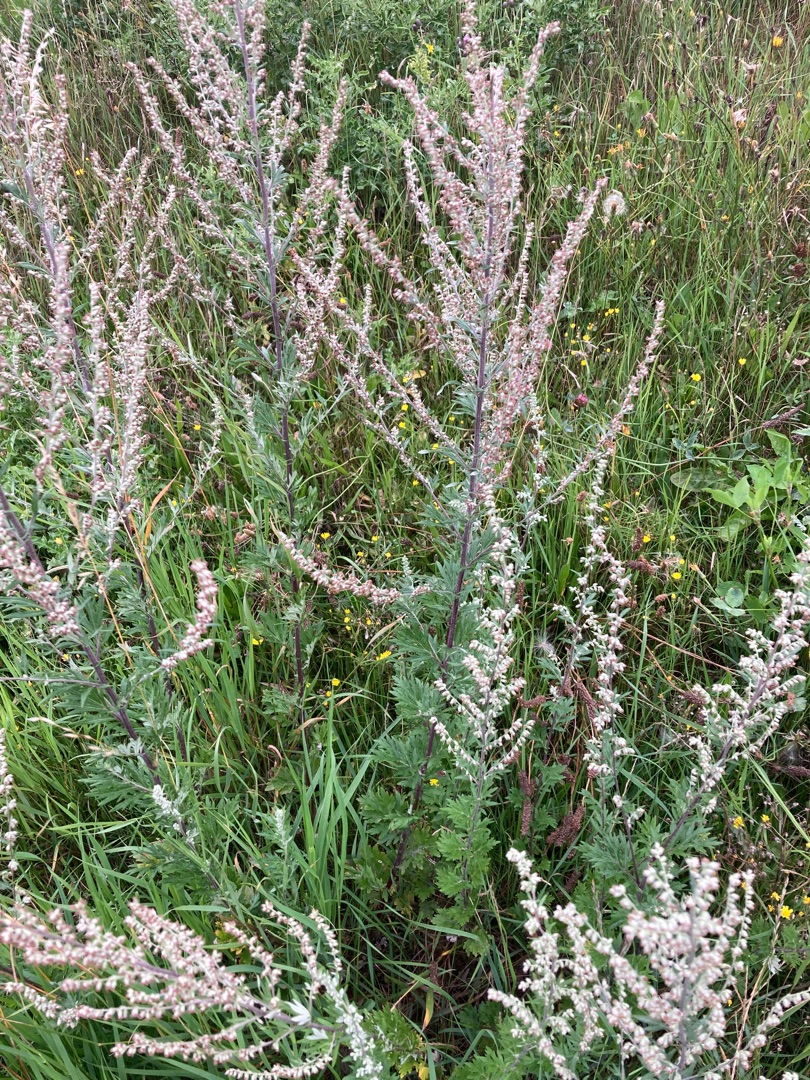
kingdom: Plantae
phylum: Tracheophyta
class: Magnoliopsida
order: Asterales
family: Asteraceae
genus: Artemisia
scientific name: Artemisia vulgaris
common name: Grå-bynke
